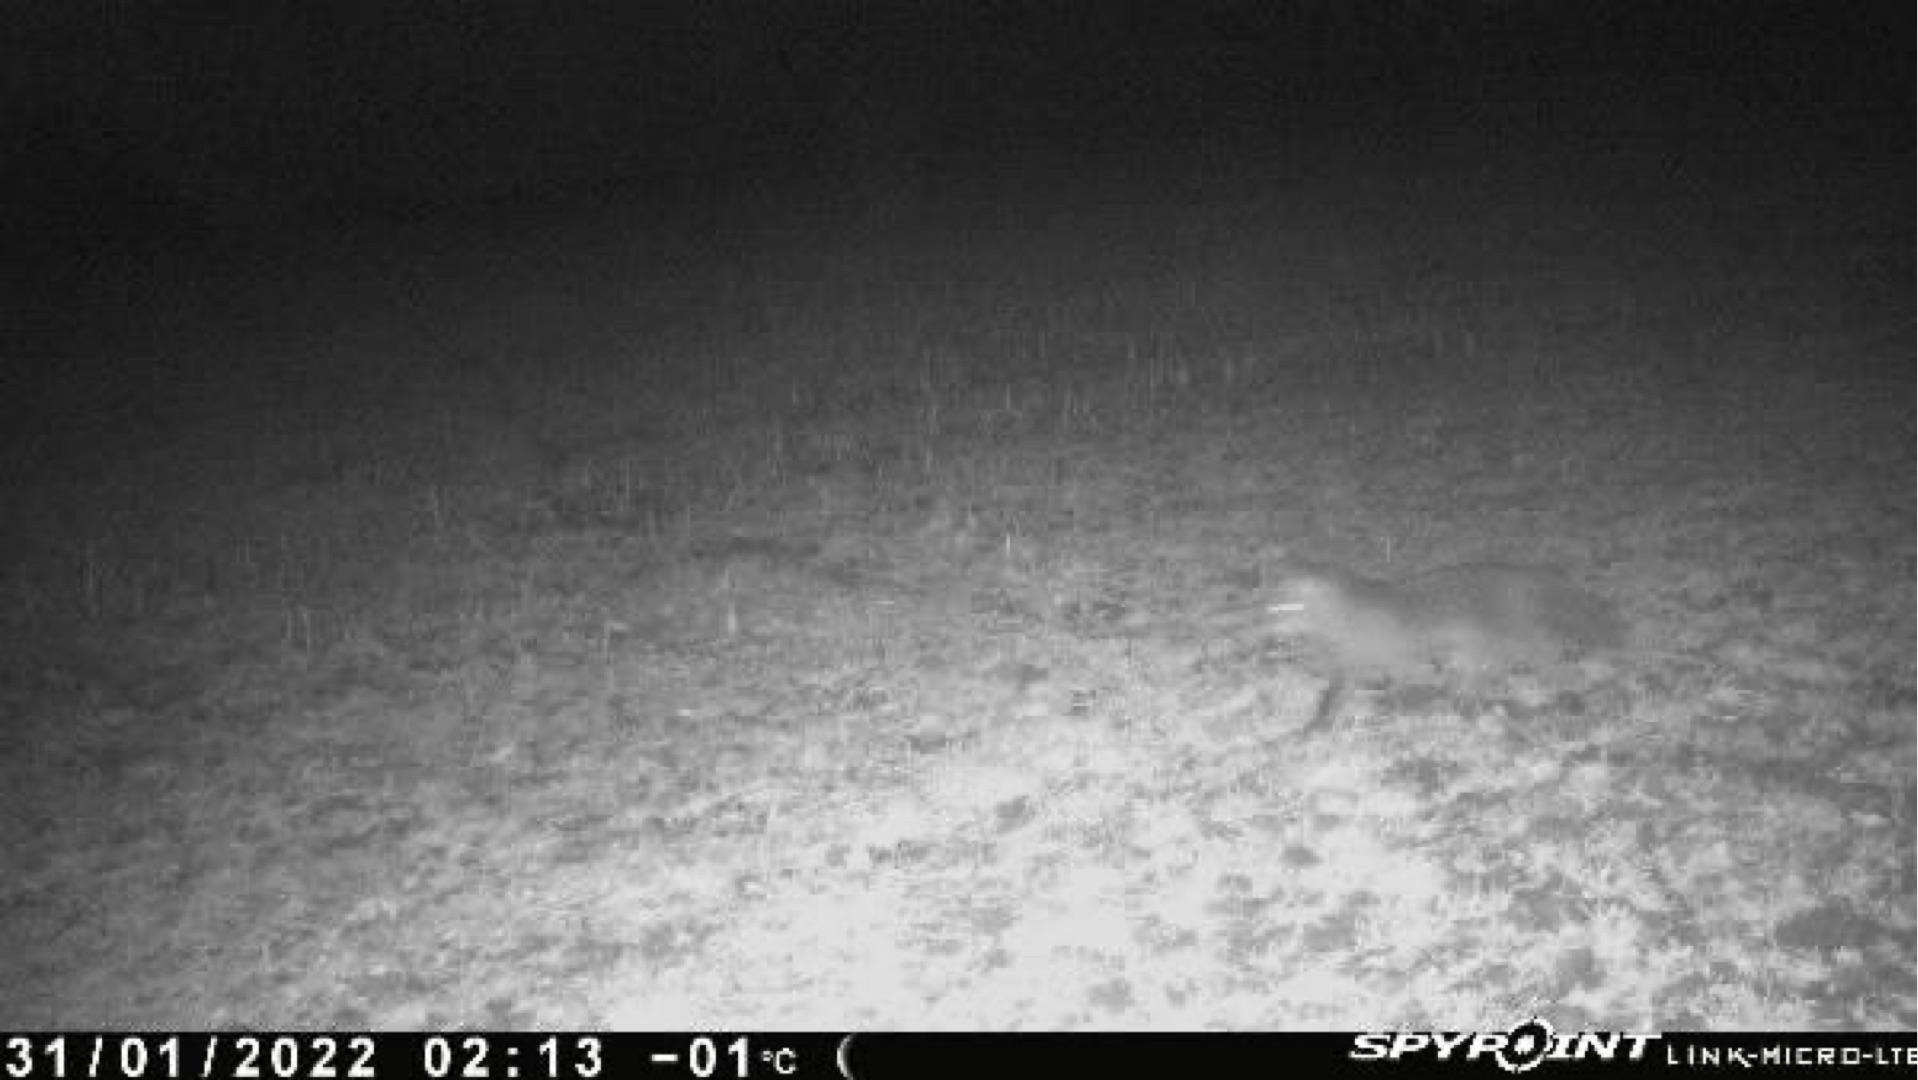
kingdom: Animalia
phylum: Chordata
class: Mammalia
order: Carnivora
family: Canidae
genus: Vulpes
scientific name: Vulpes vulpes
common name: Ræv
